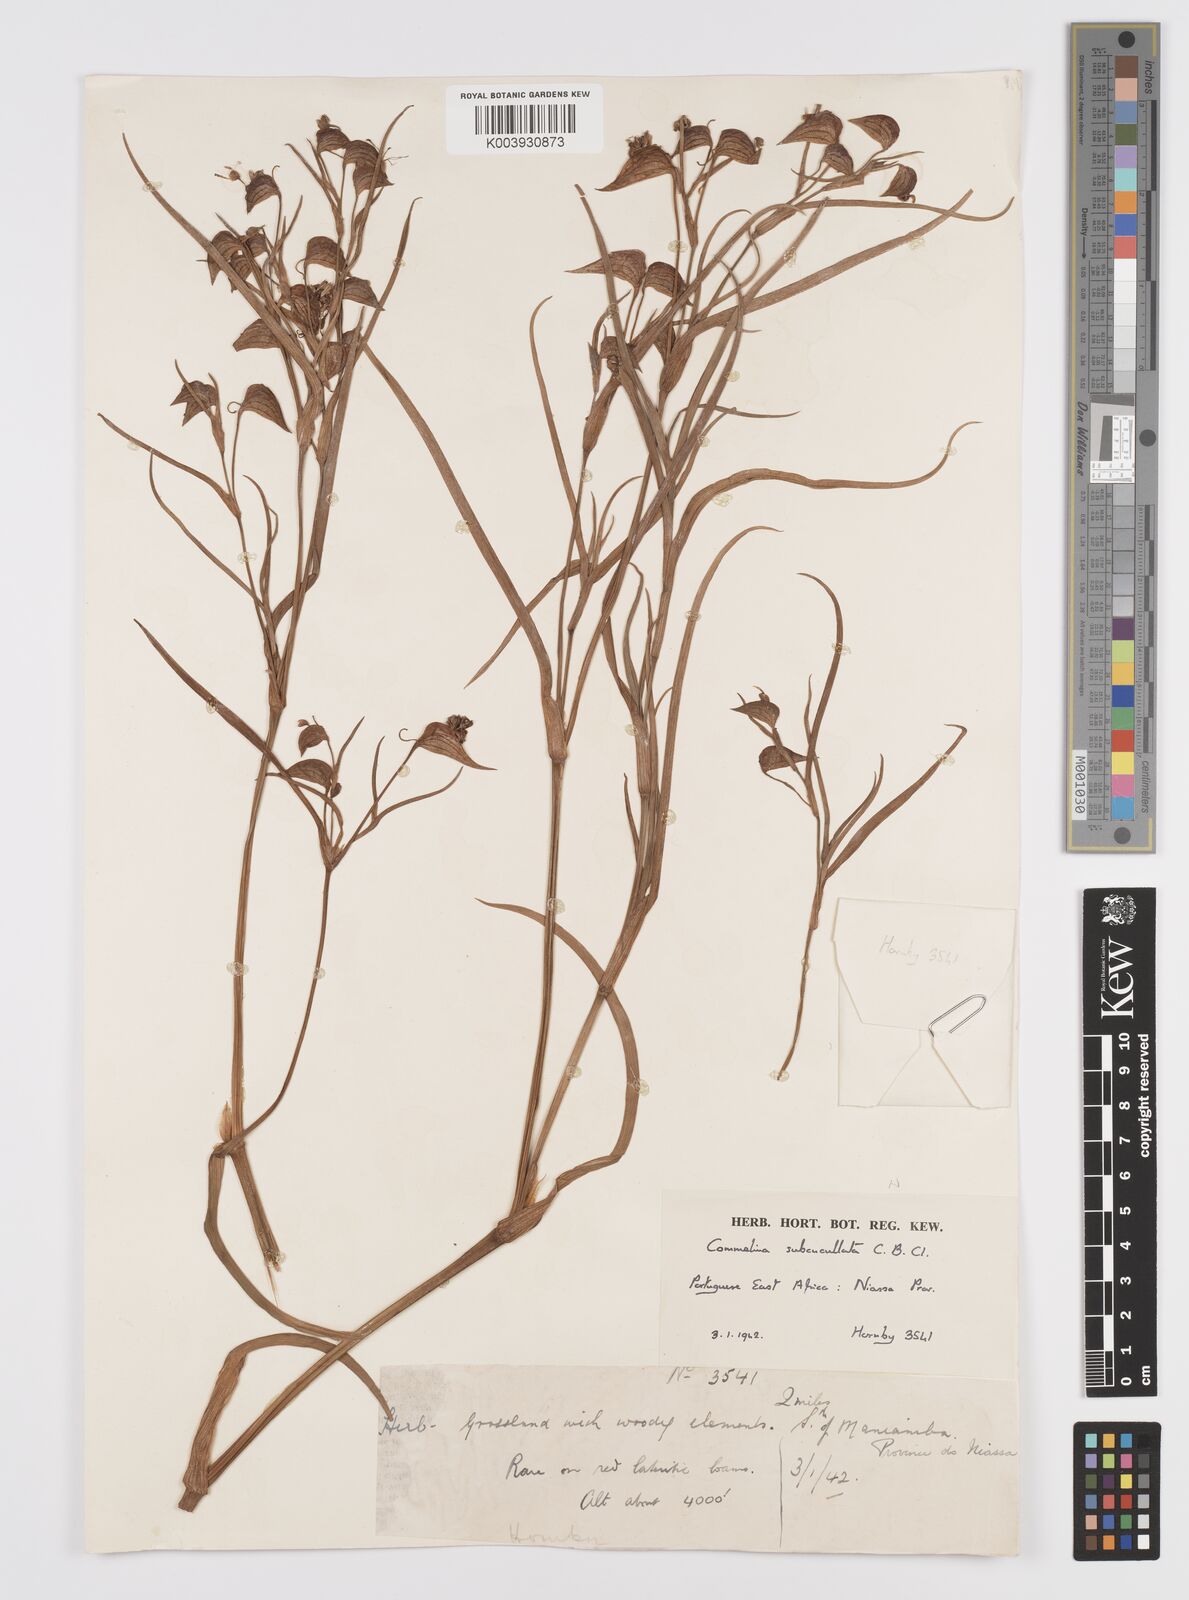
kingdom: Plantae
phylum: Tracheophyta
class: Liliopsida
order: Commelinales
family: Commelinaceae
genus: Commelina
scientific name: Commelina subcucullata
